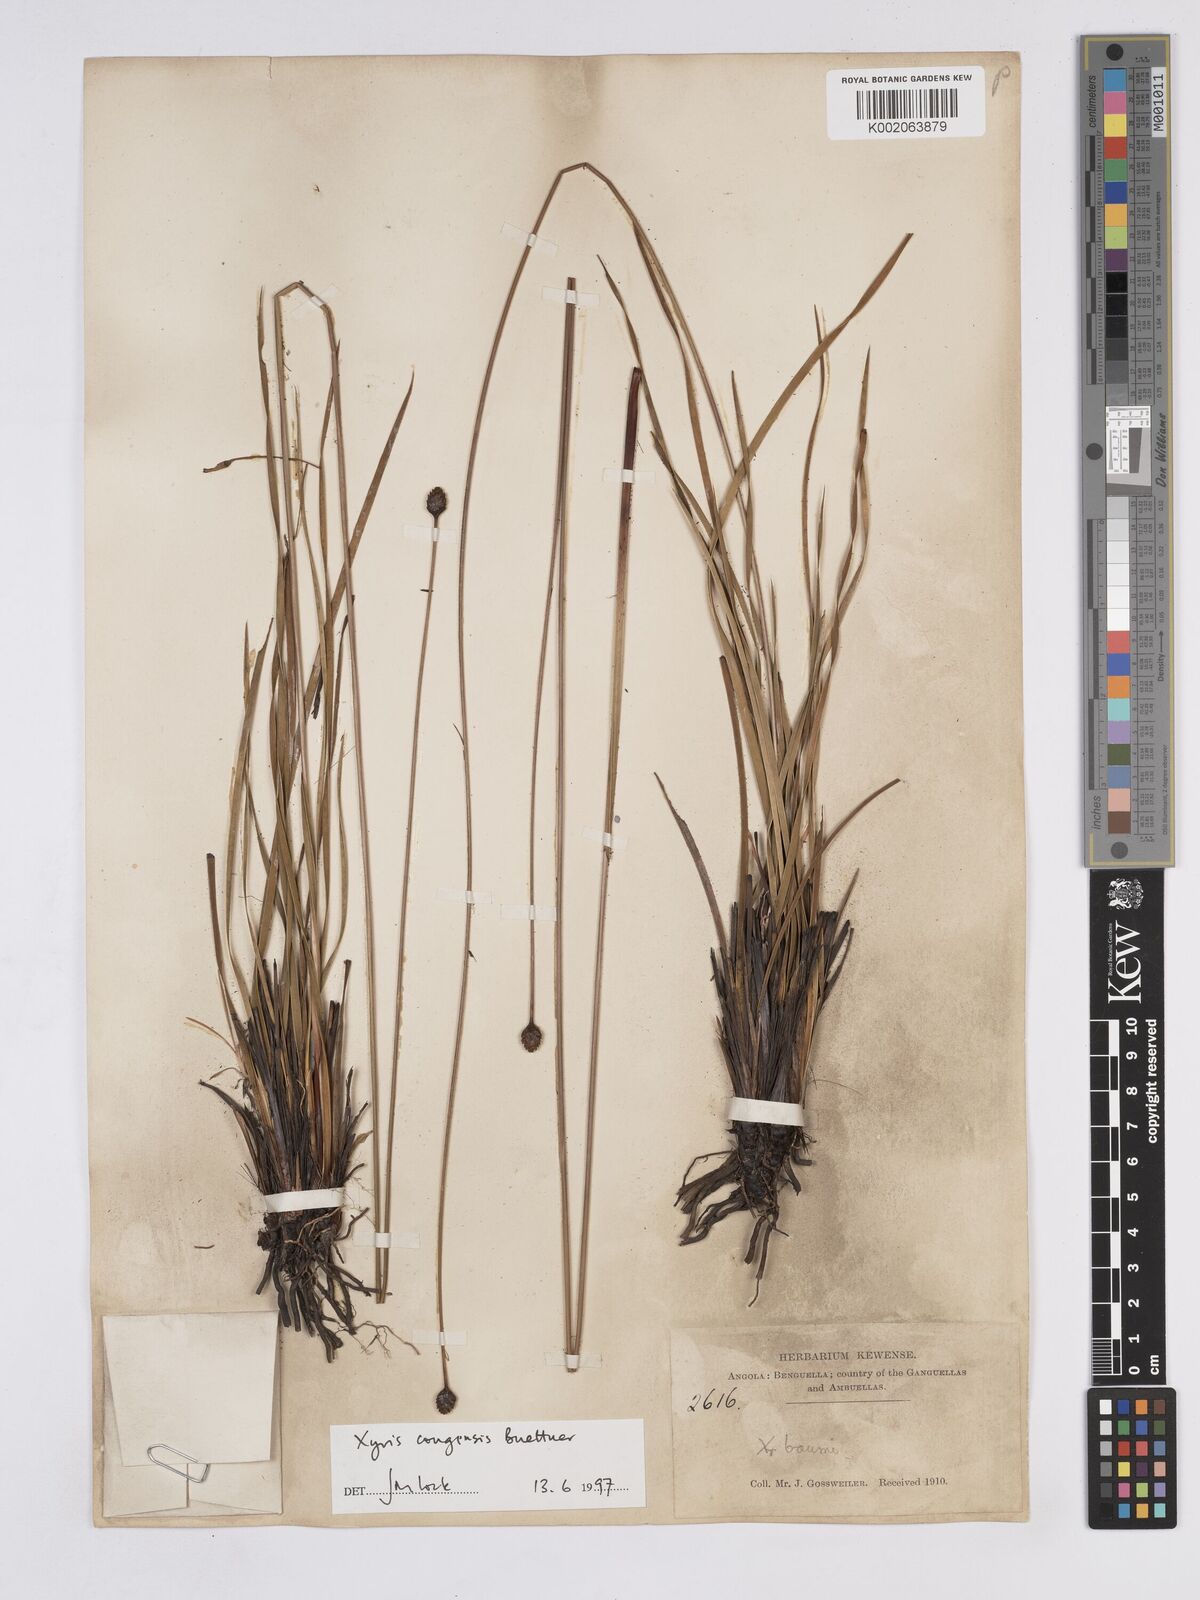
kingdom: Plantae
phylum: Tracheophyta
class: Liliopsida
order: Poales
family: Xyridaceae
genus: Xyris
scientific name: Xyris congensis
